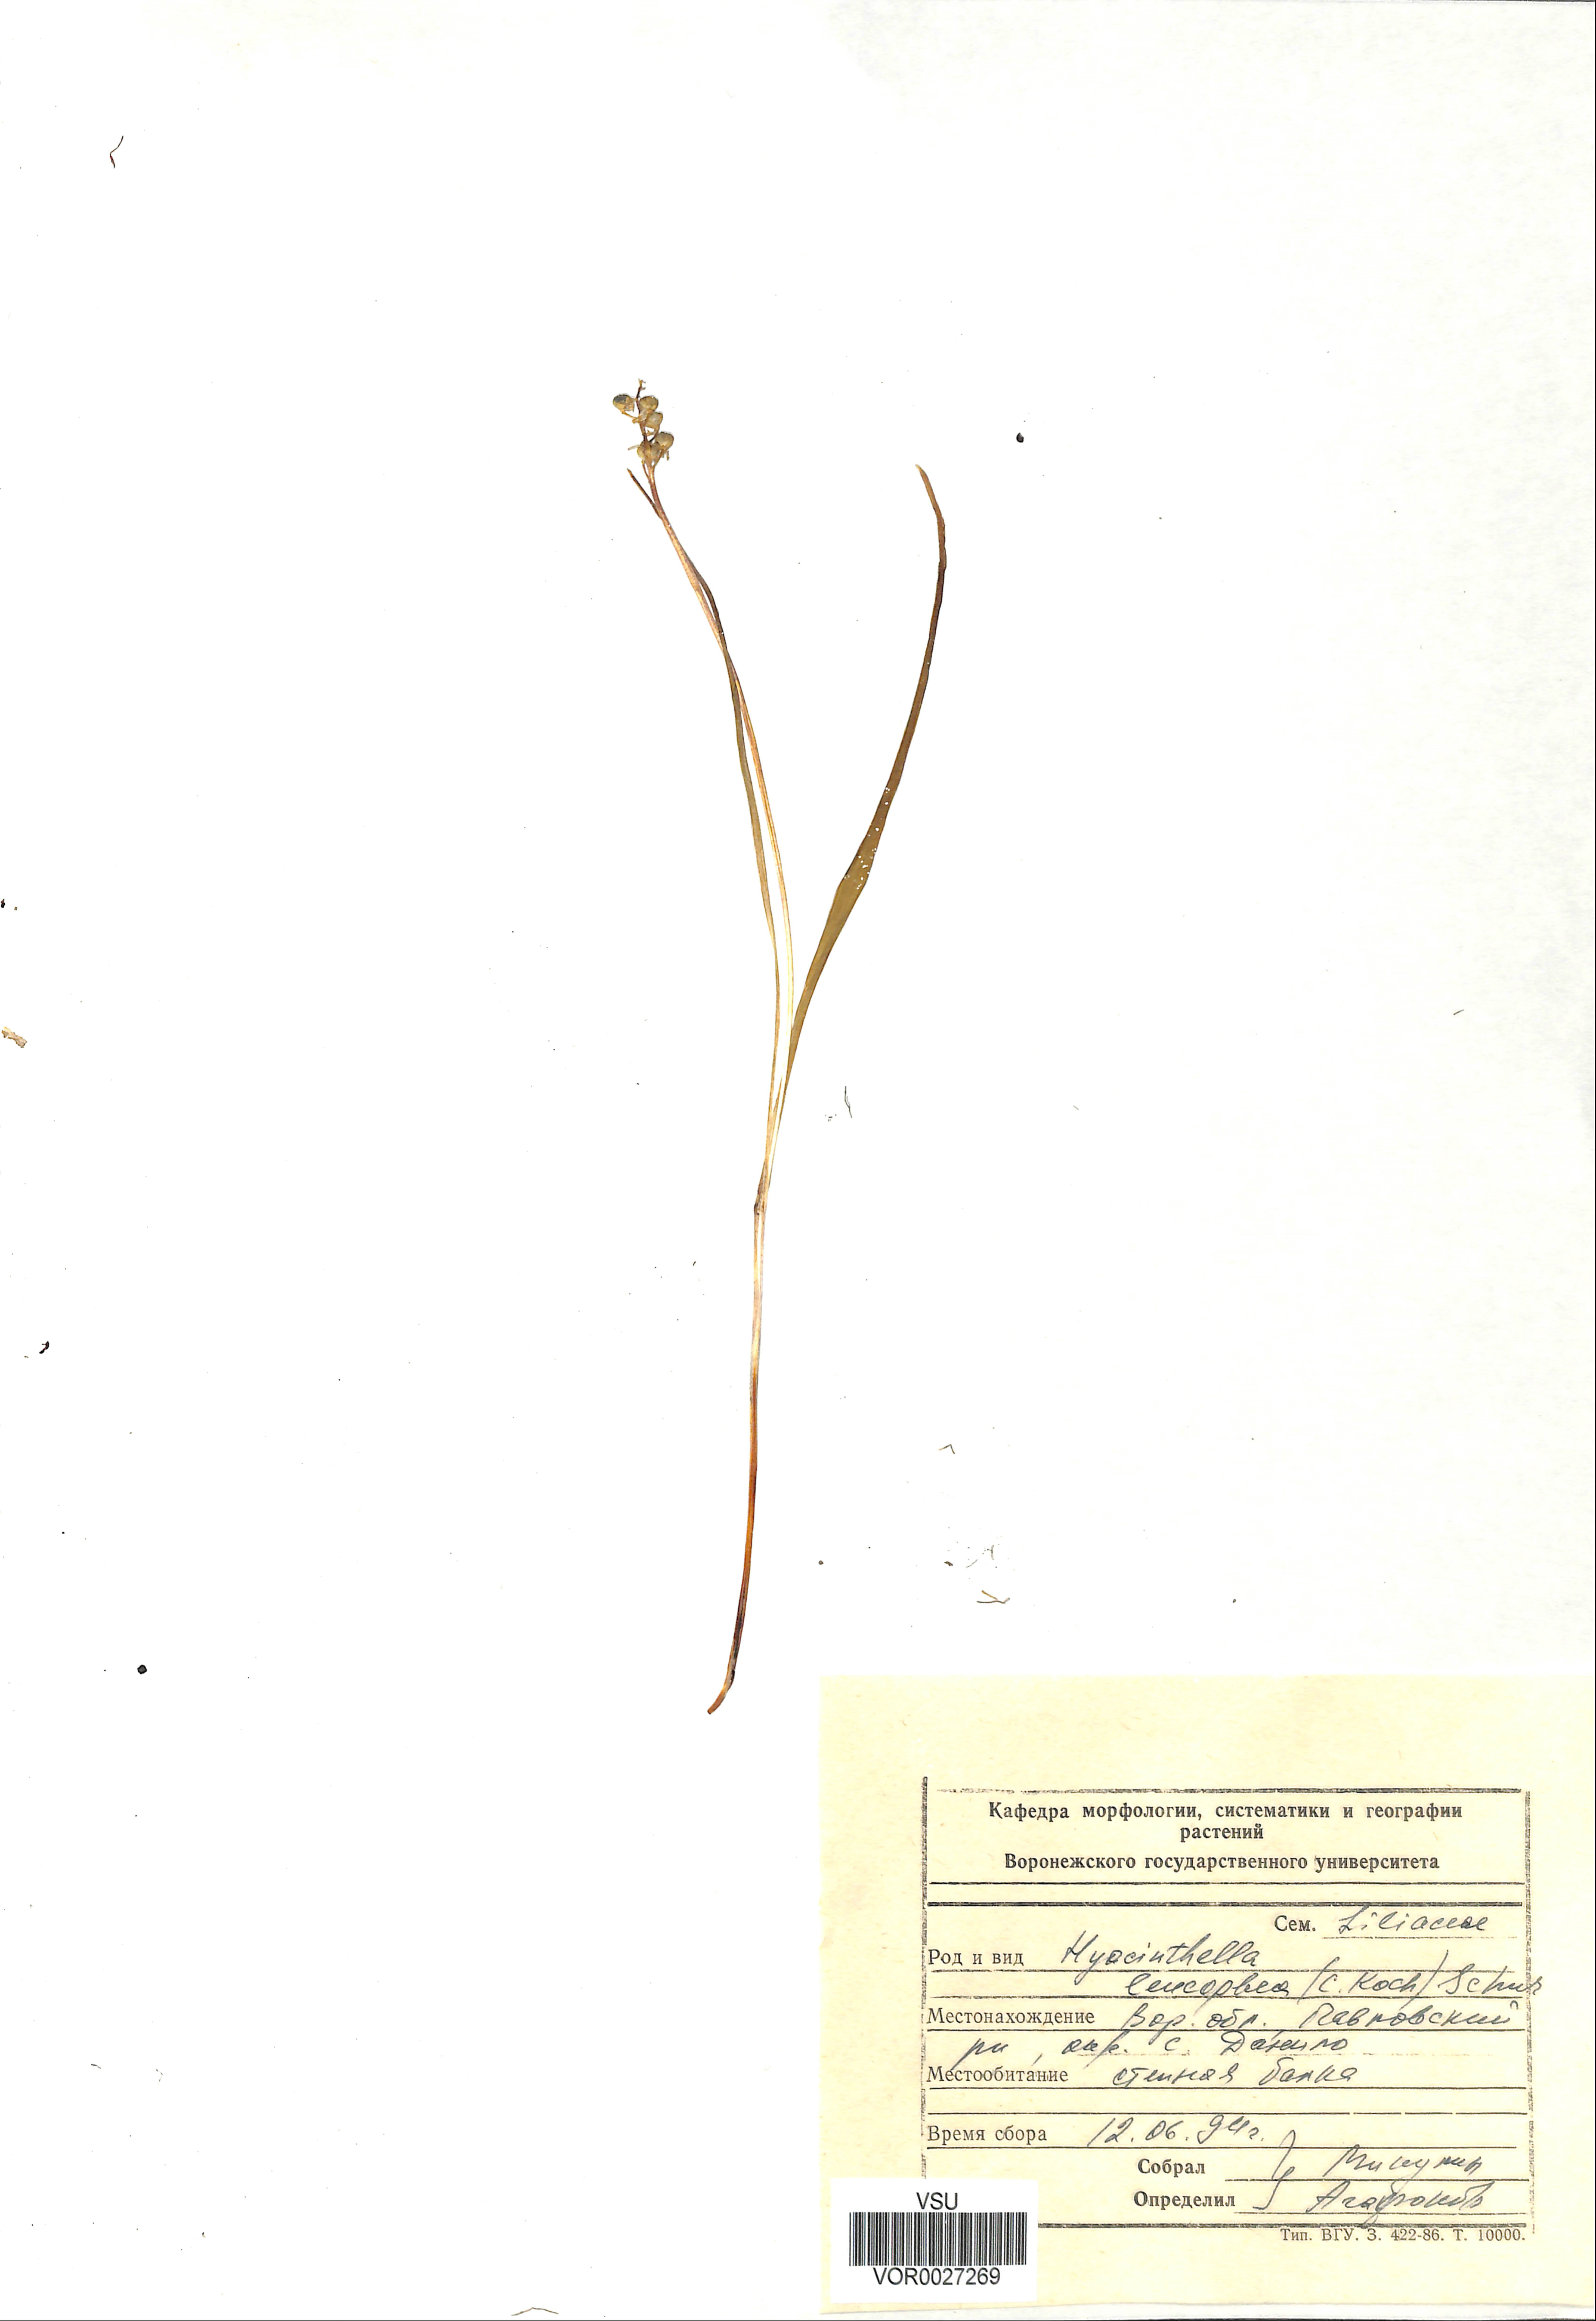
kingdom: Plantae
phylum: Tracheophyta
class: Liliopsida
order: Asparagales
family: Asparagaceae
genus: Hyacinthella
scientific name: Hyacinthella leucophaea
